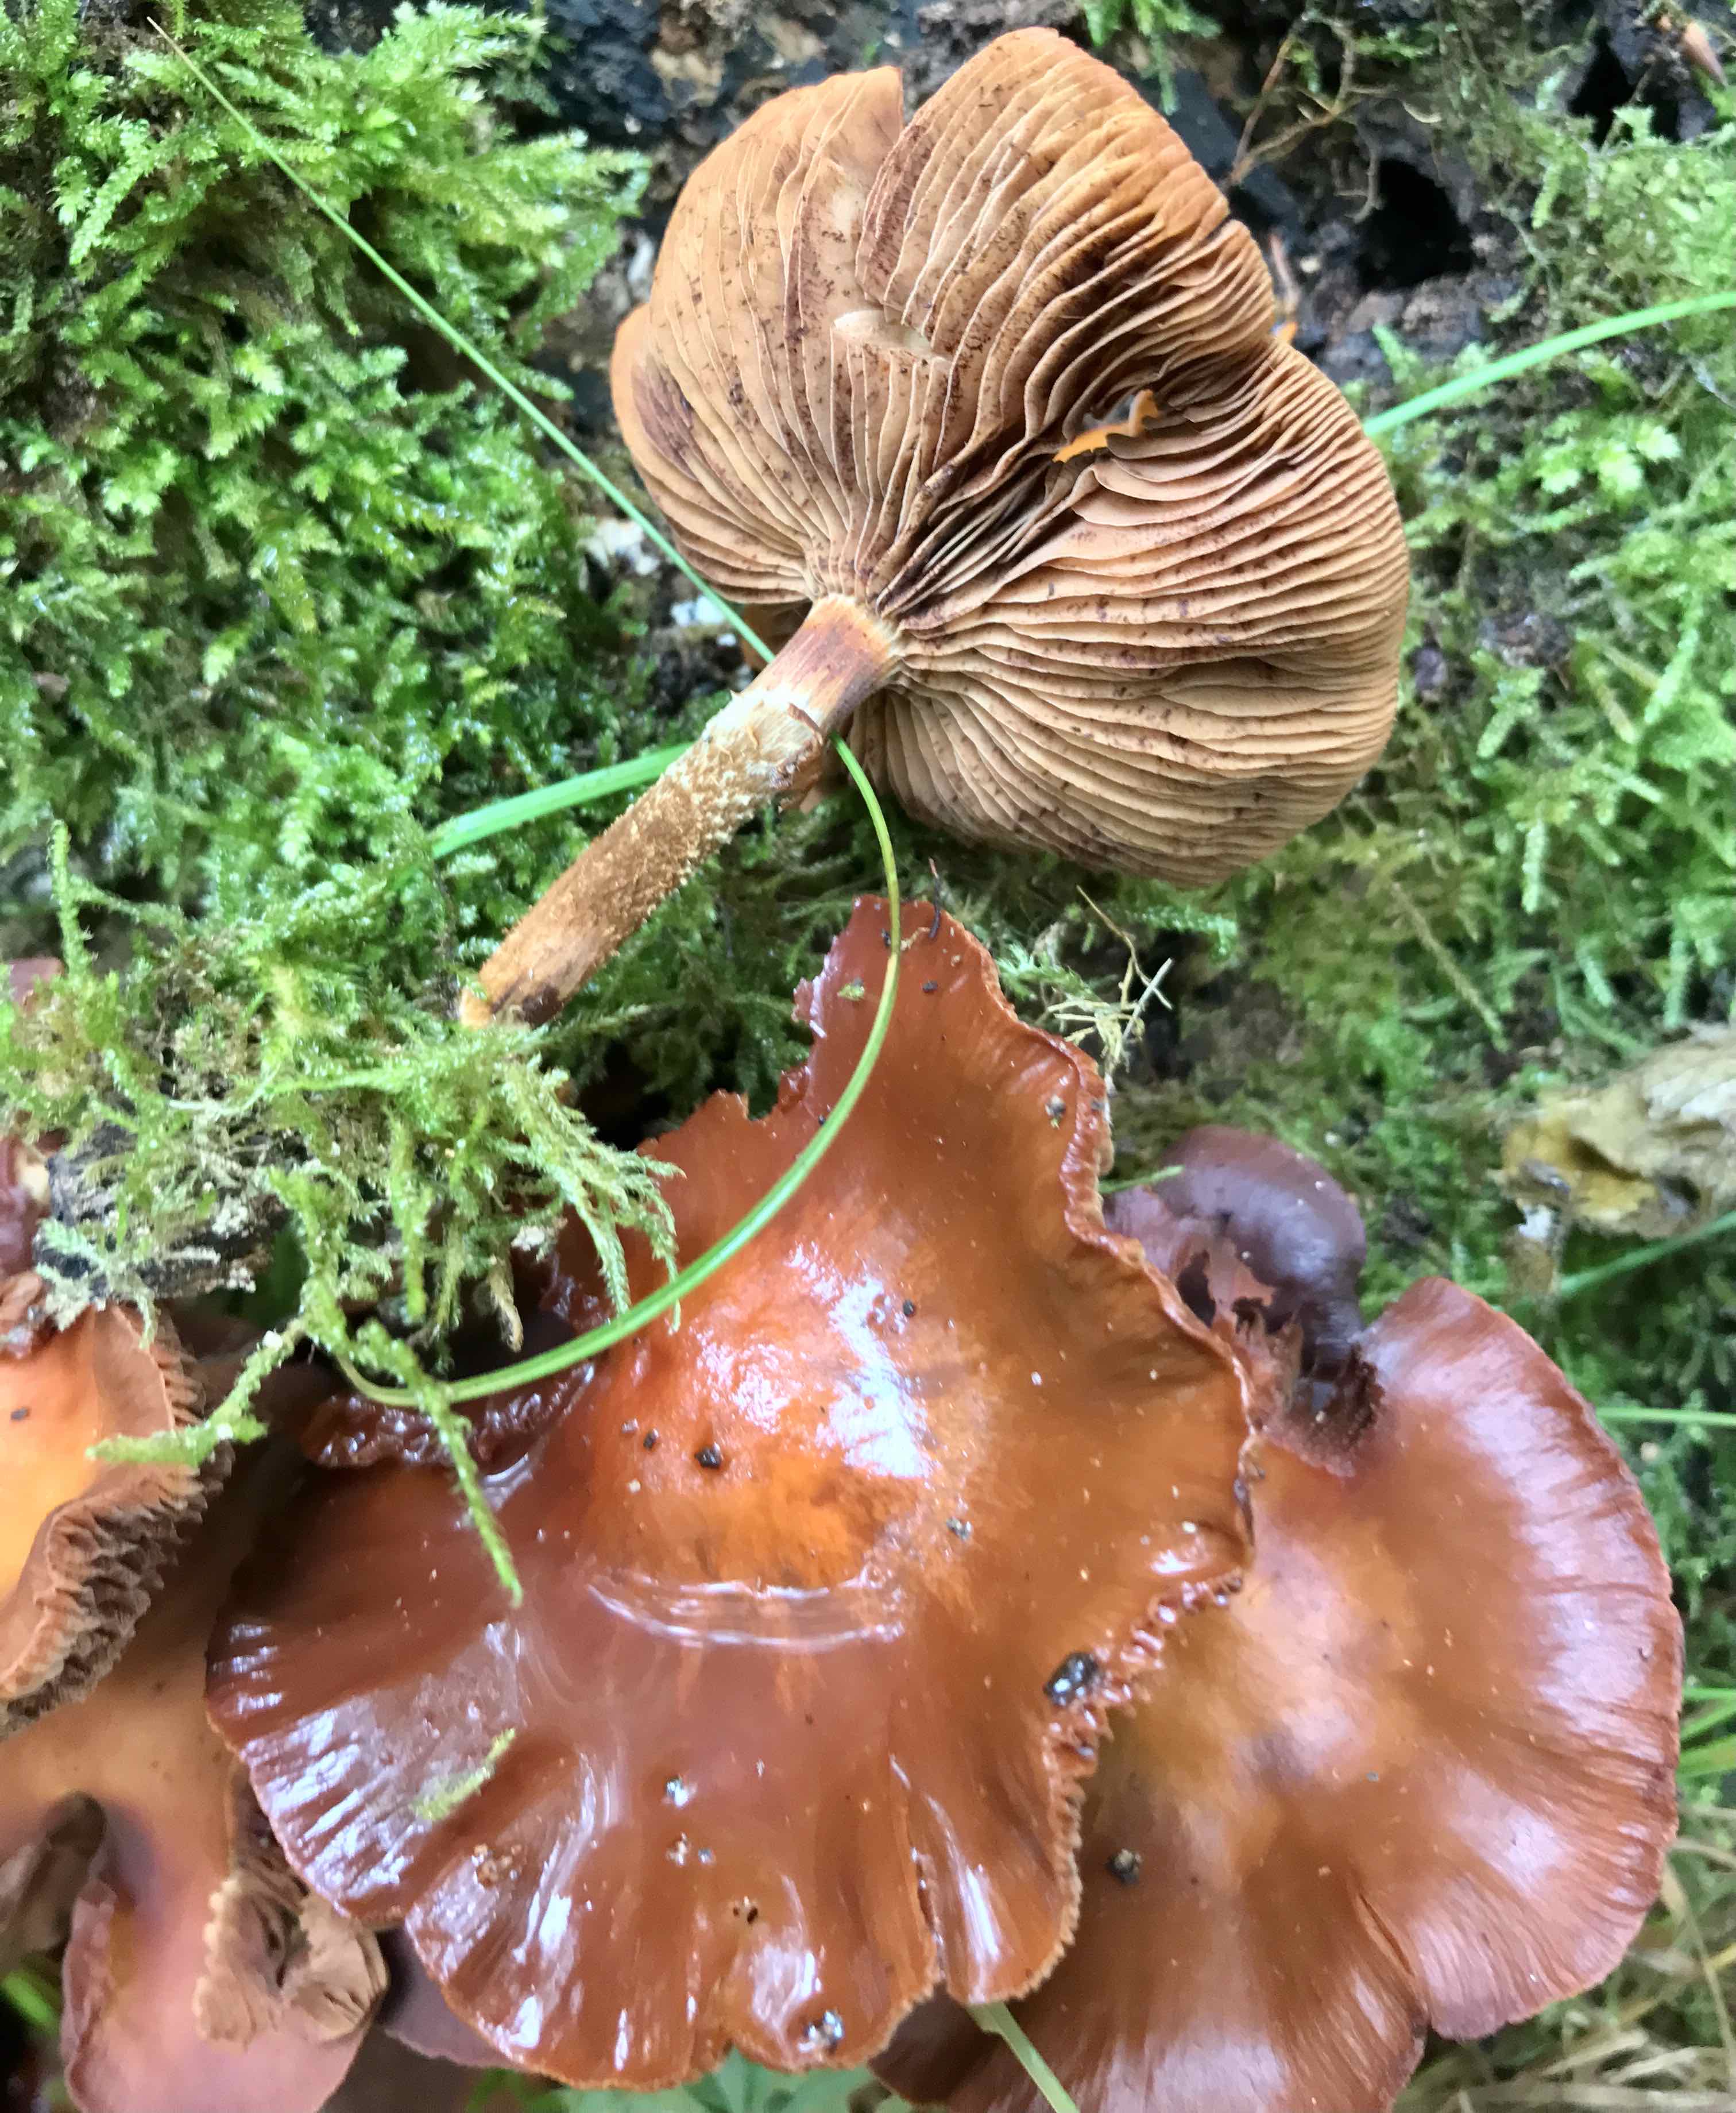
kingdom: Fungi
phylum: Basidiomycota
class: Agaricomycetes
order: Agaricales
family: Strophariaceae
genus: Kuehneromyces
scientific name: Kuehneromyces mutabilis
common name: foranderlig skælhat
